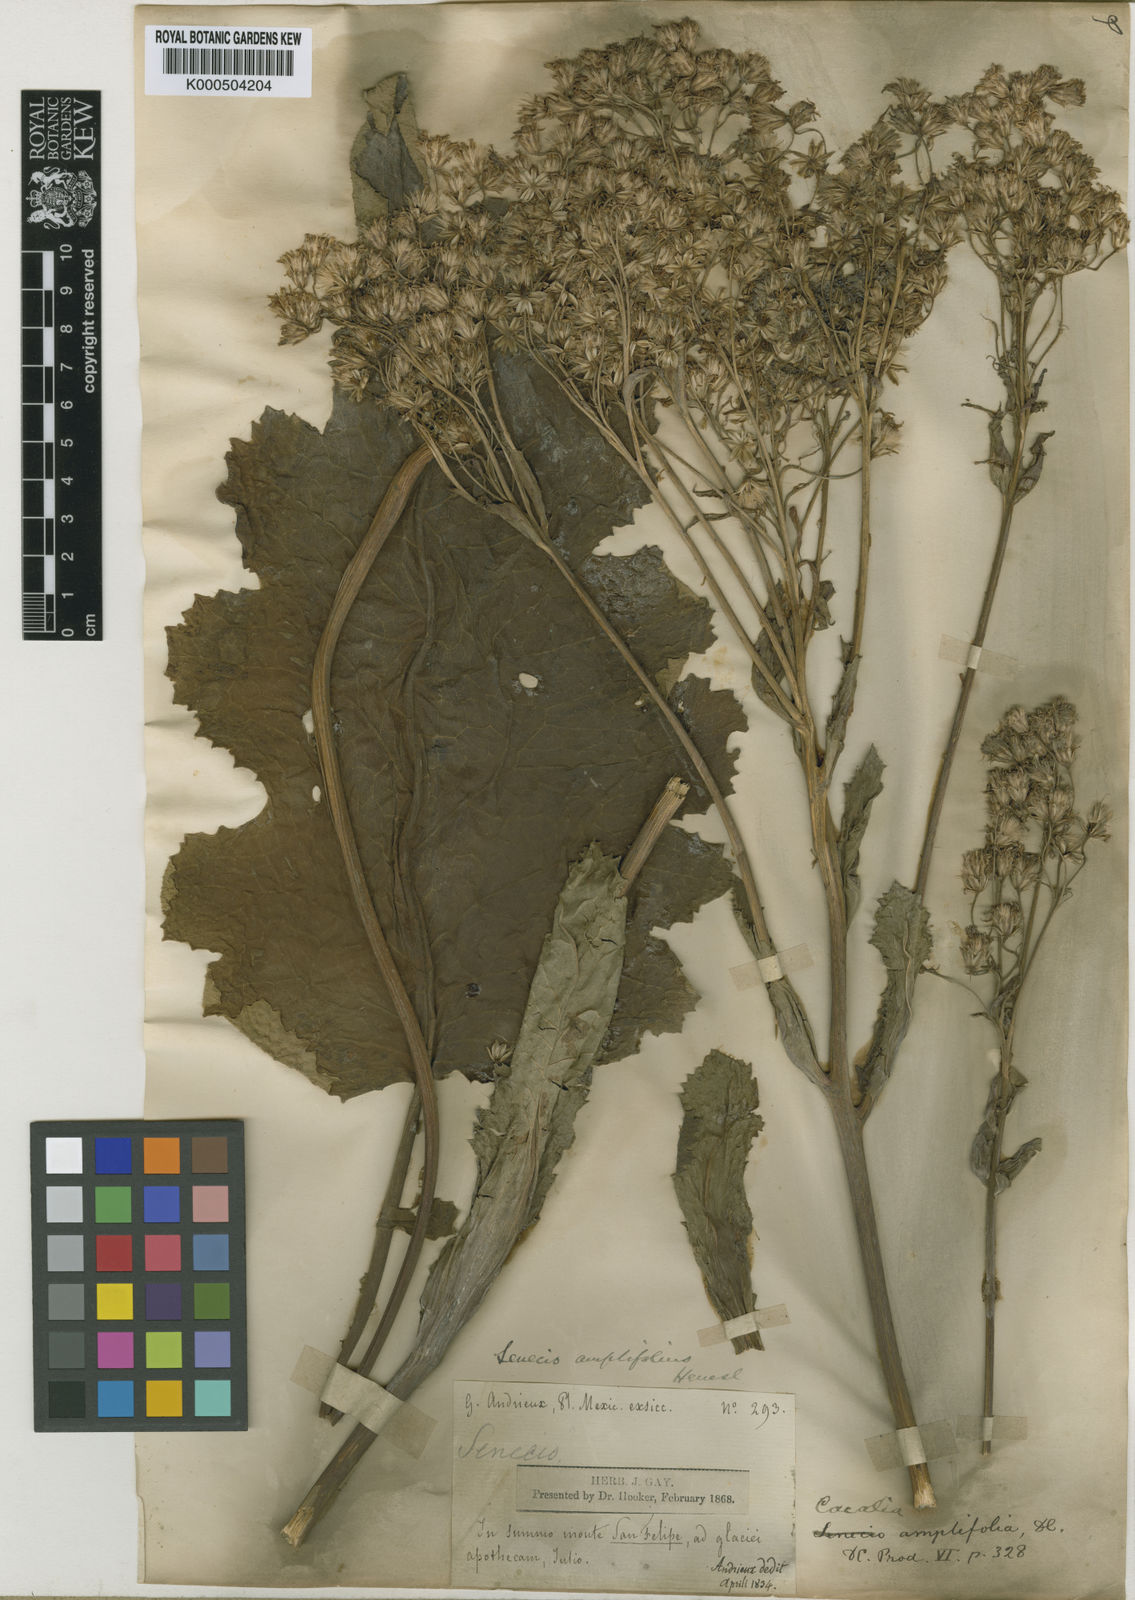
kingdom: Plantae
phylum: Tracheophyta
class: Magnoliopsida
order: Asterales
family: Asteraceae
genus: Psacalium
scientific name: Psacalium amplifolium
